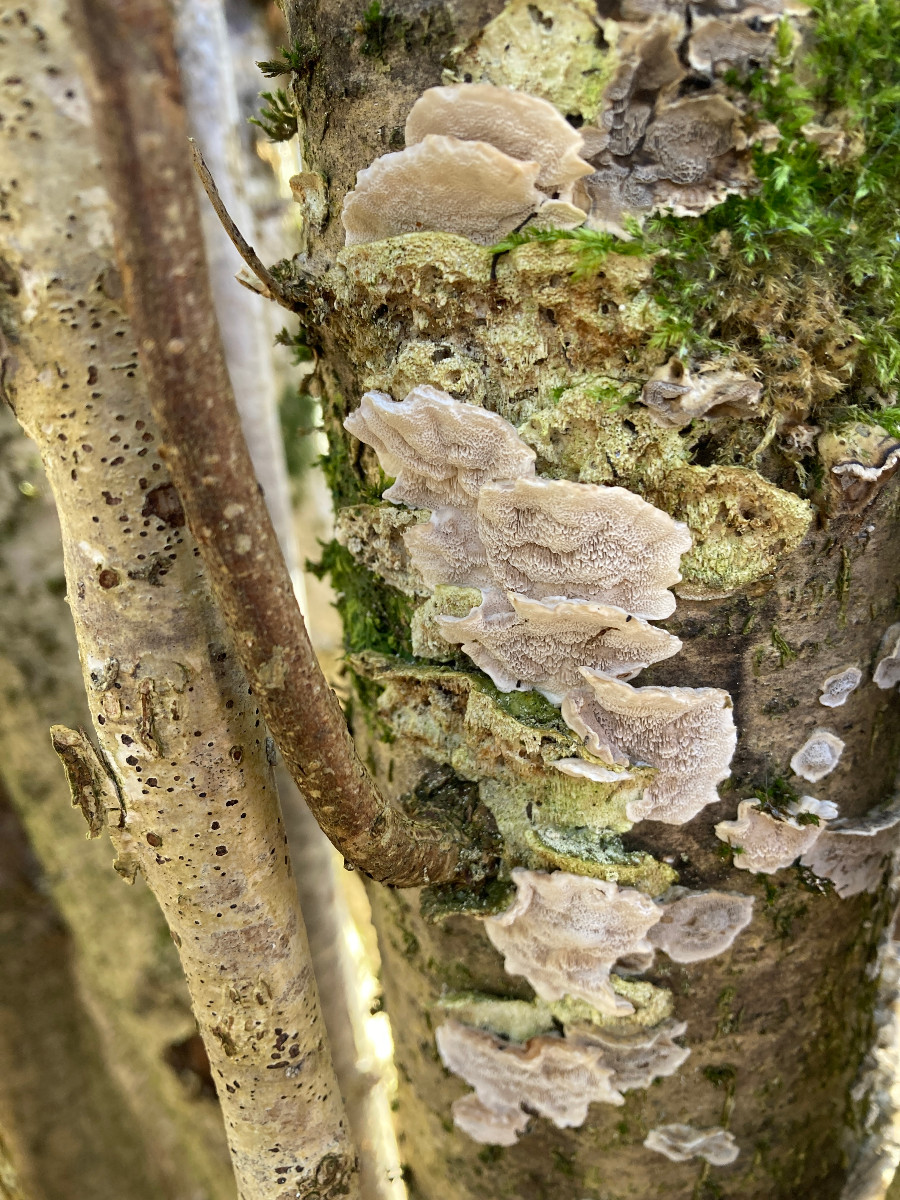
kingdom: Fungi
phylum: Basidiomycota
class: Agaricomycetes
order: Polyporales
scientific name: Polyporales
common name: poresvampordenen
